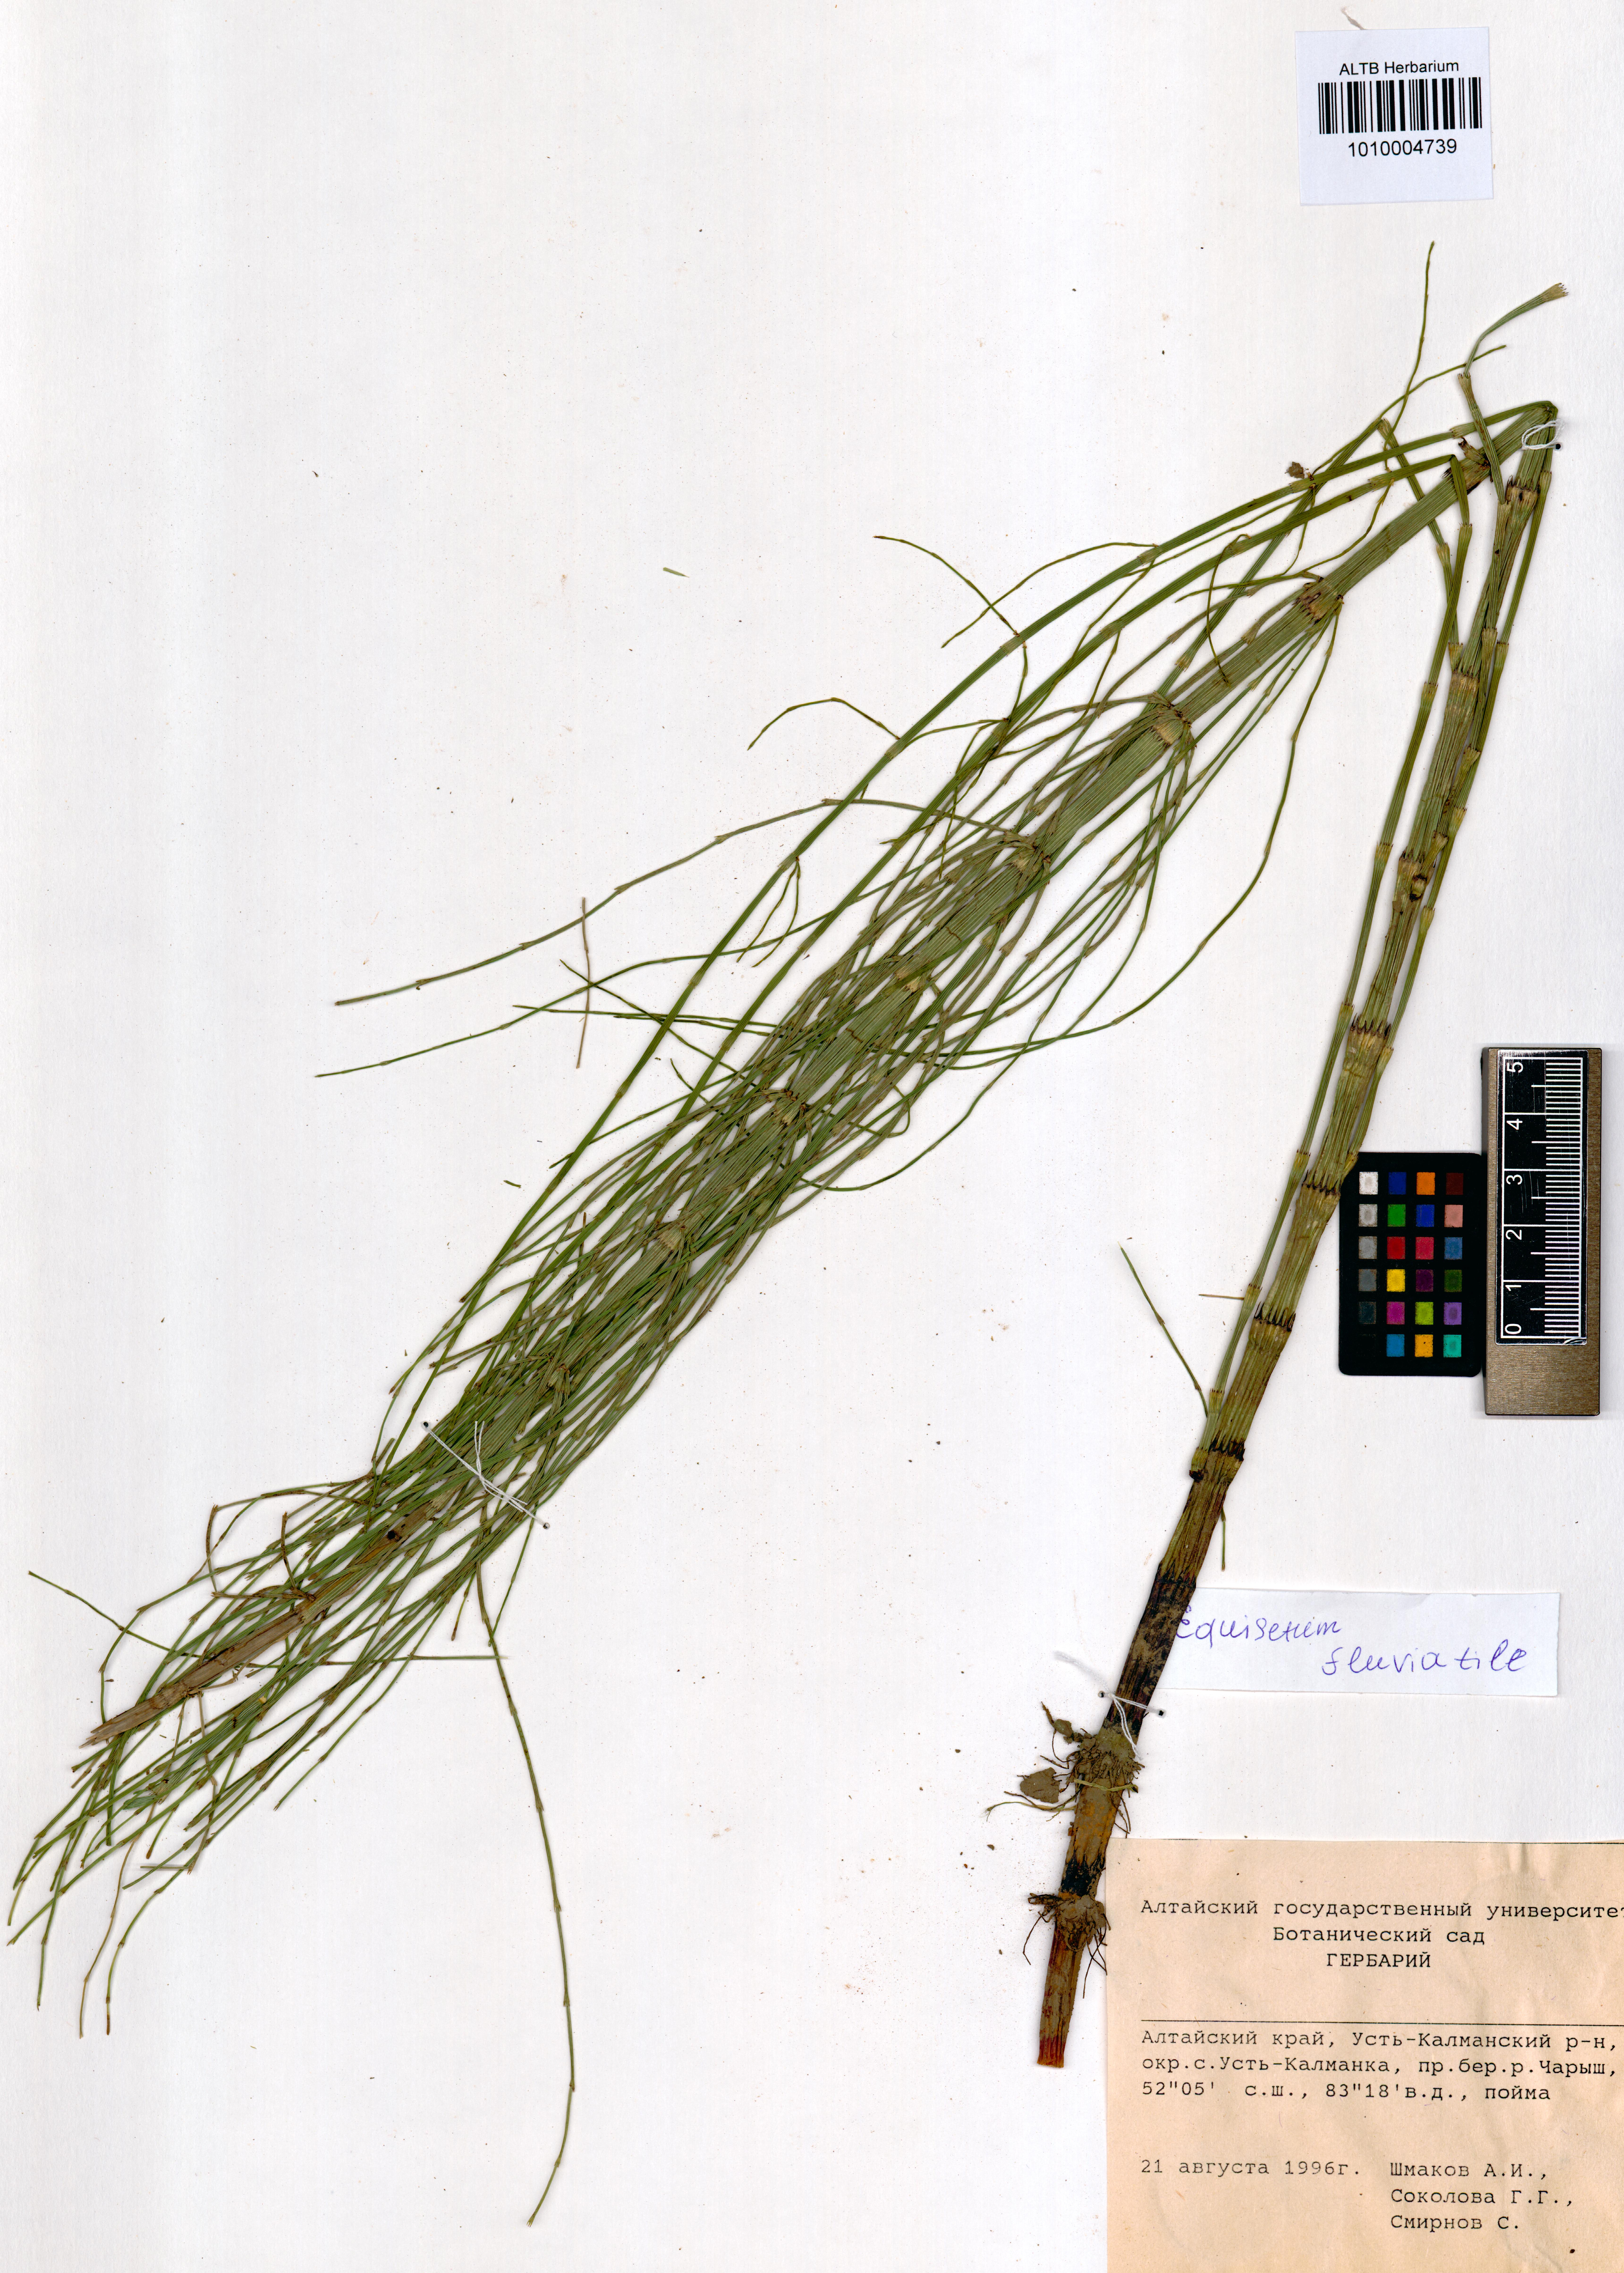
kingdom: Plantae
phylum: Tracheophyta
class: Polypodiopsida
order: Equisetales
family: Equisetaceae
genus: Equisetum
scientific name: Equisetum fluviatile
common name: Water horsetail
